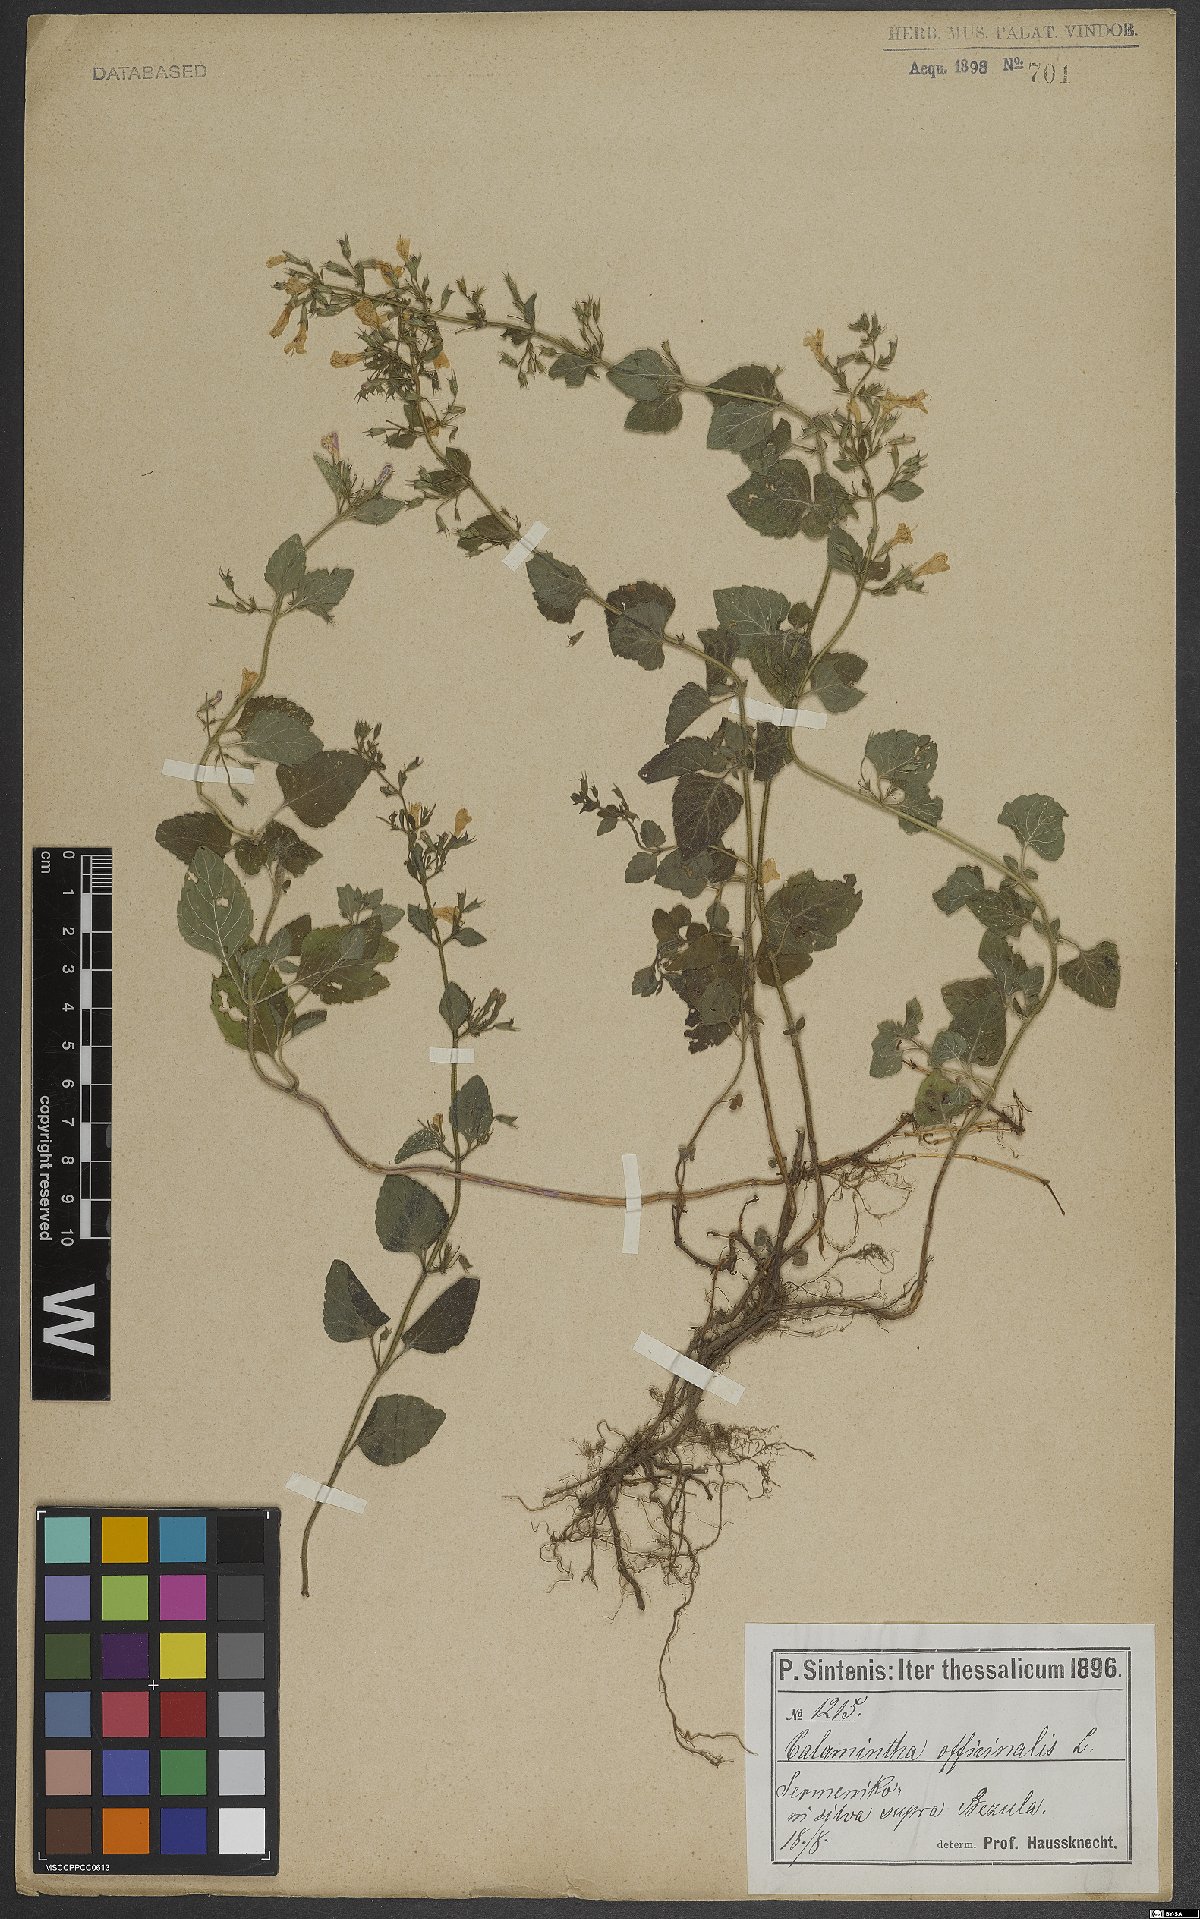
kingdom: Plantae
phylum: Tracheophyta
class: Magnoliopsida
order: Lamiales
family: Lamiaceae
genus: Clinopodium
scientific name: Clinopodium nepeta
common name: Lesser calamint
